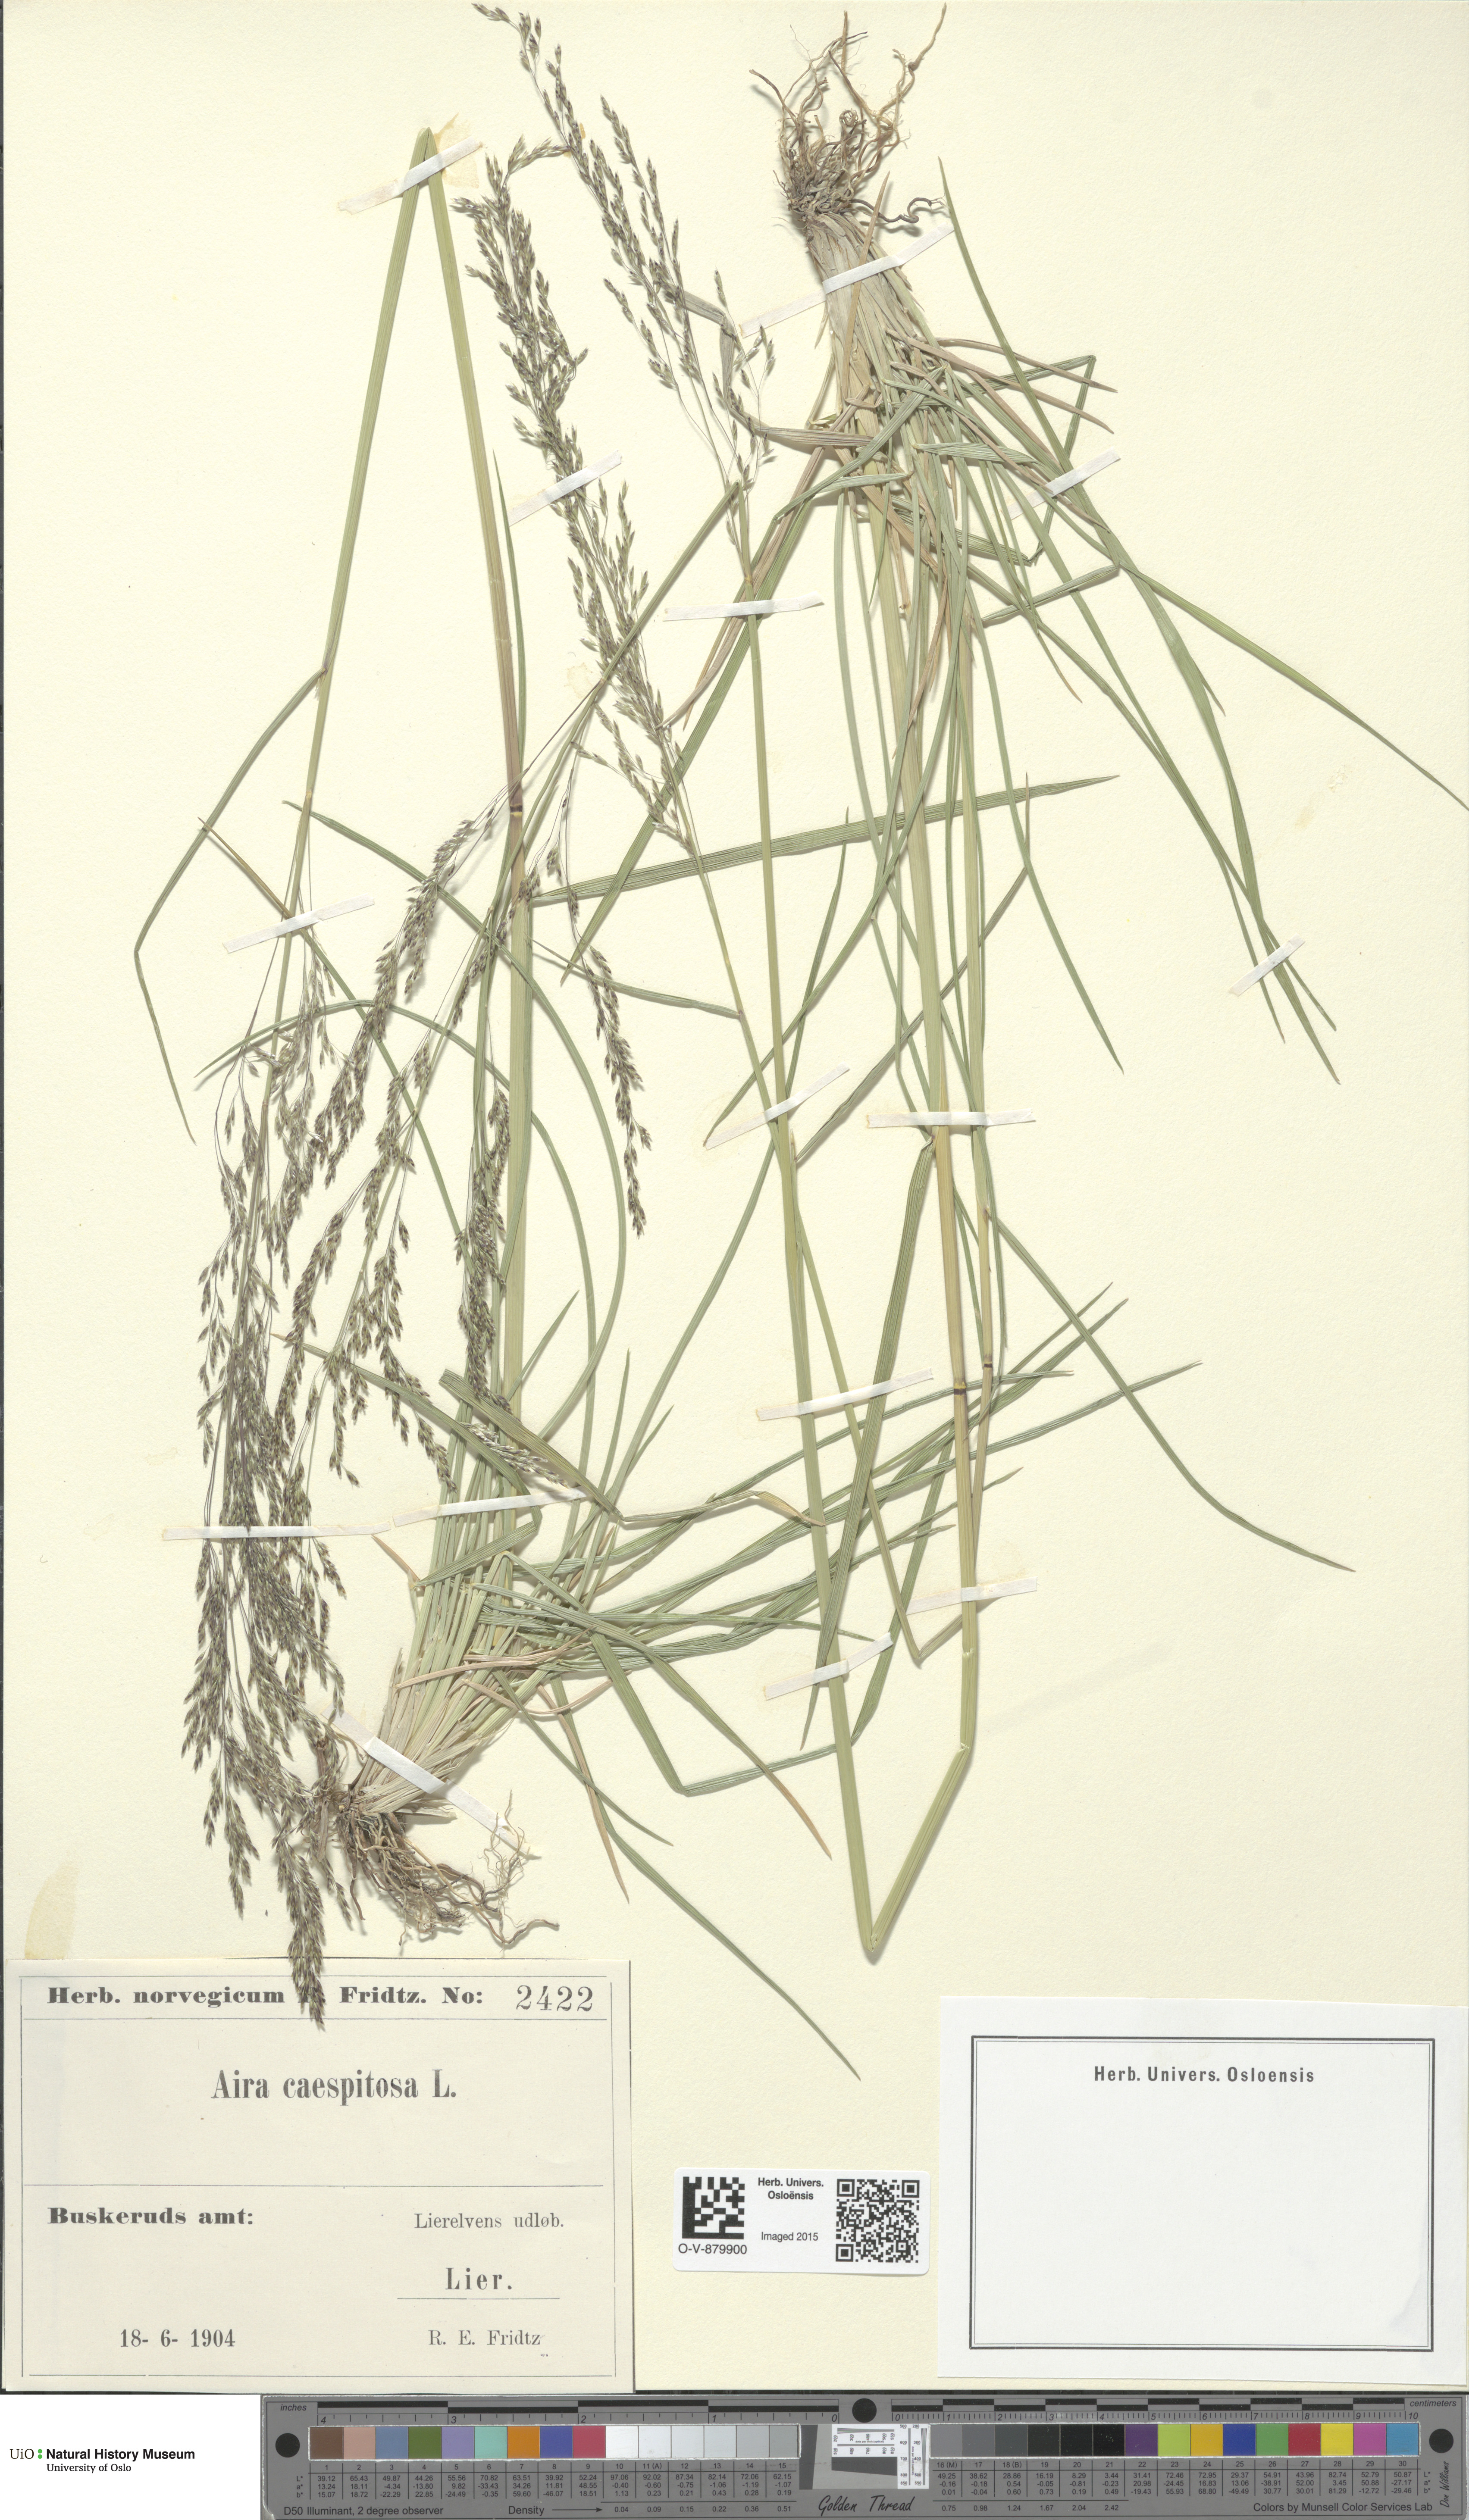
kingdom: Plantae
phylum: Tracheophyta
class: Liliopsida
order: Poales
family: Poaceae
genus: Deschampsia
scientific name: Deschampsia cespitosa
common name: Tufted hair-grass
